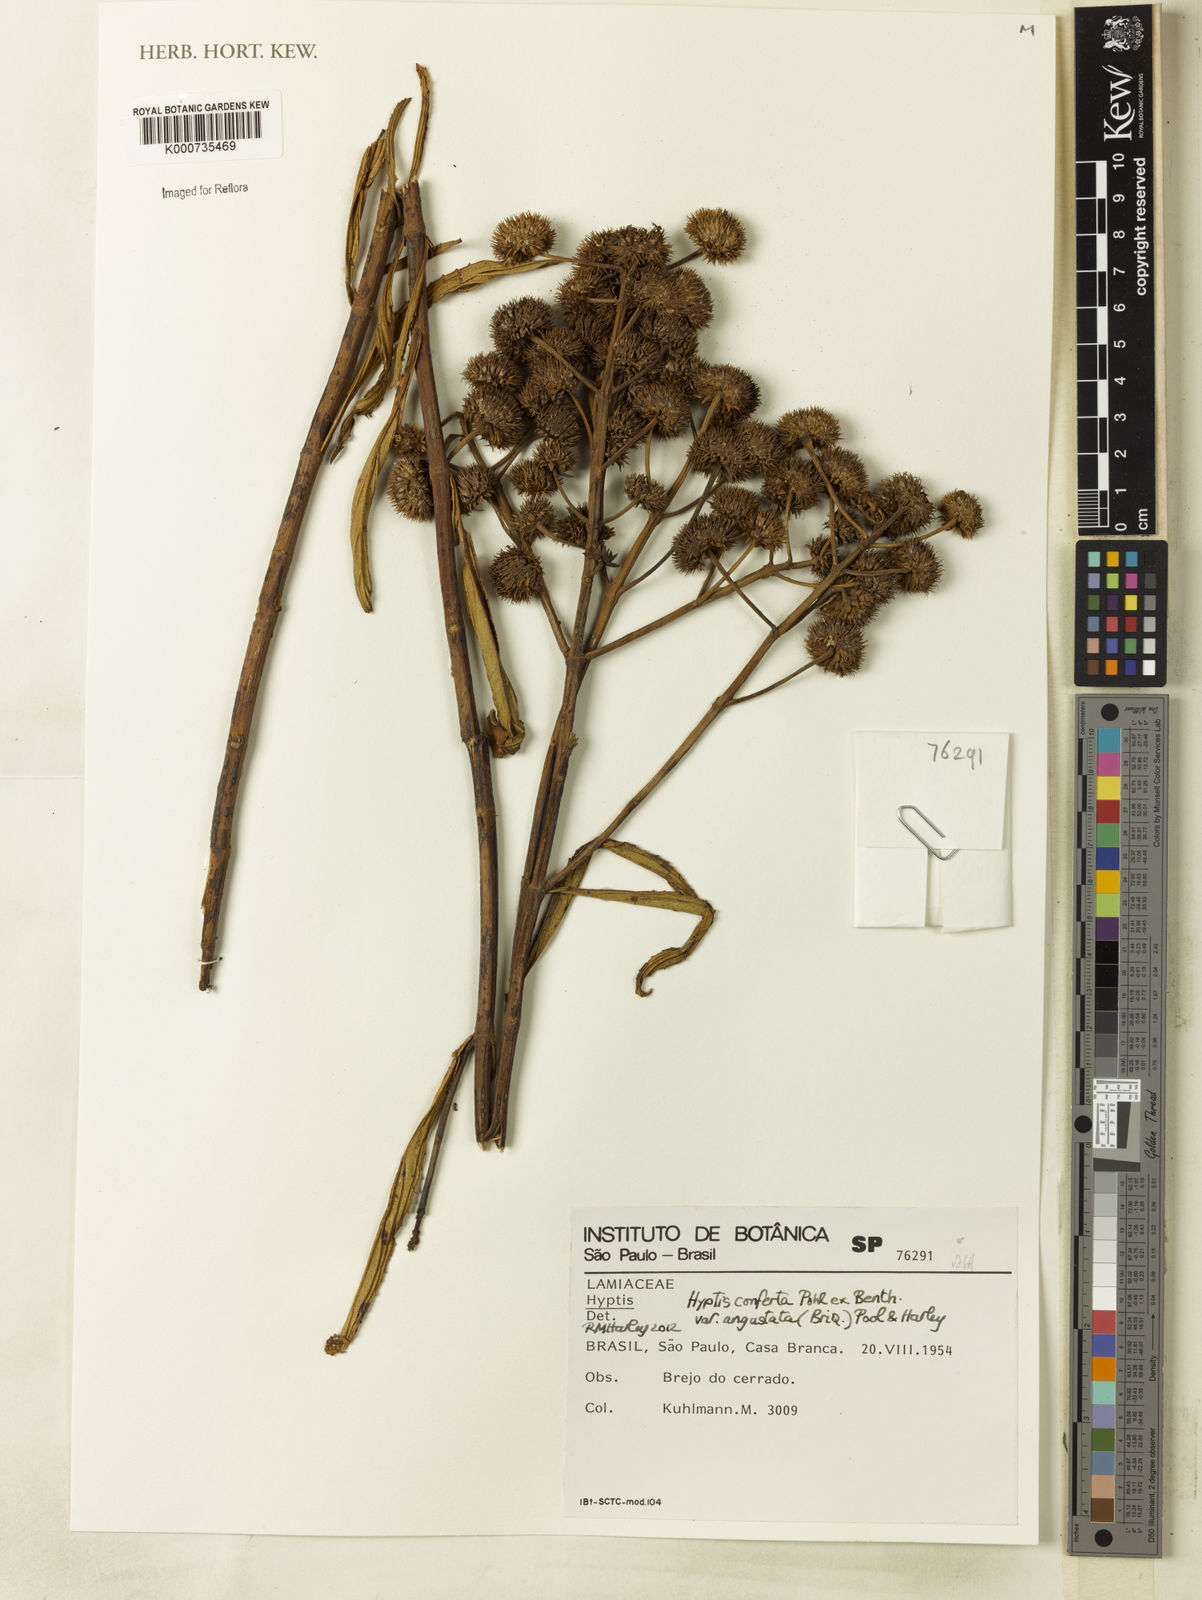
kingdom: Plantae
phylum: Tracheophyta
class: Magnoliopsida
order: Lamiales
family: Lamiaceae
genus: Hyptis
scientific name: Hyptis conferta
